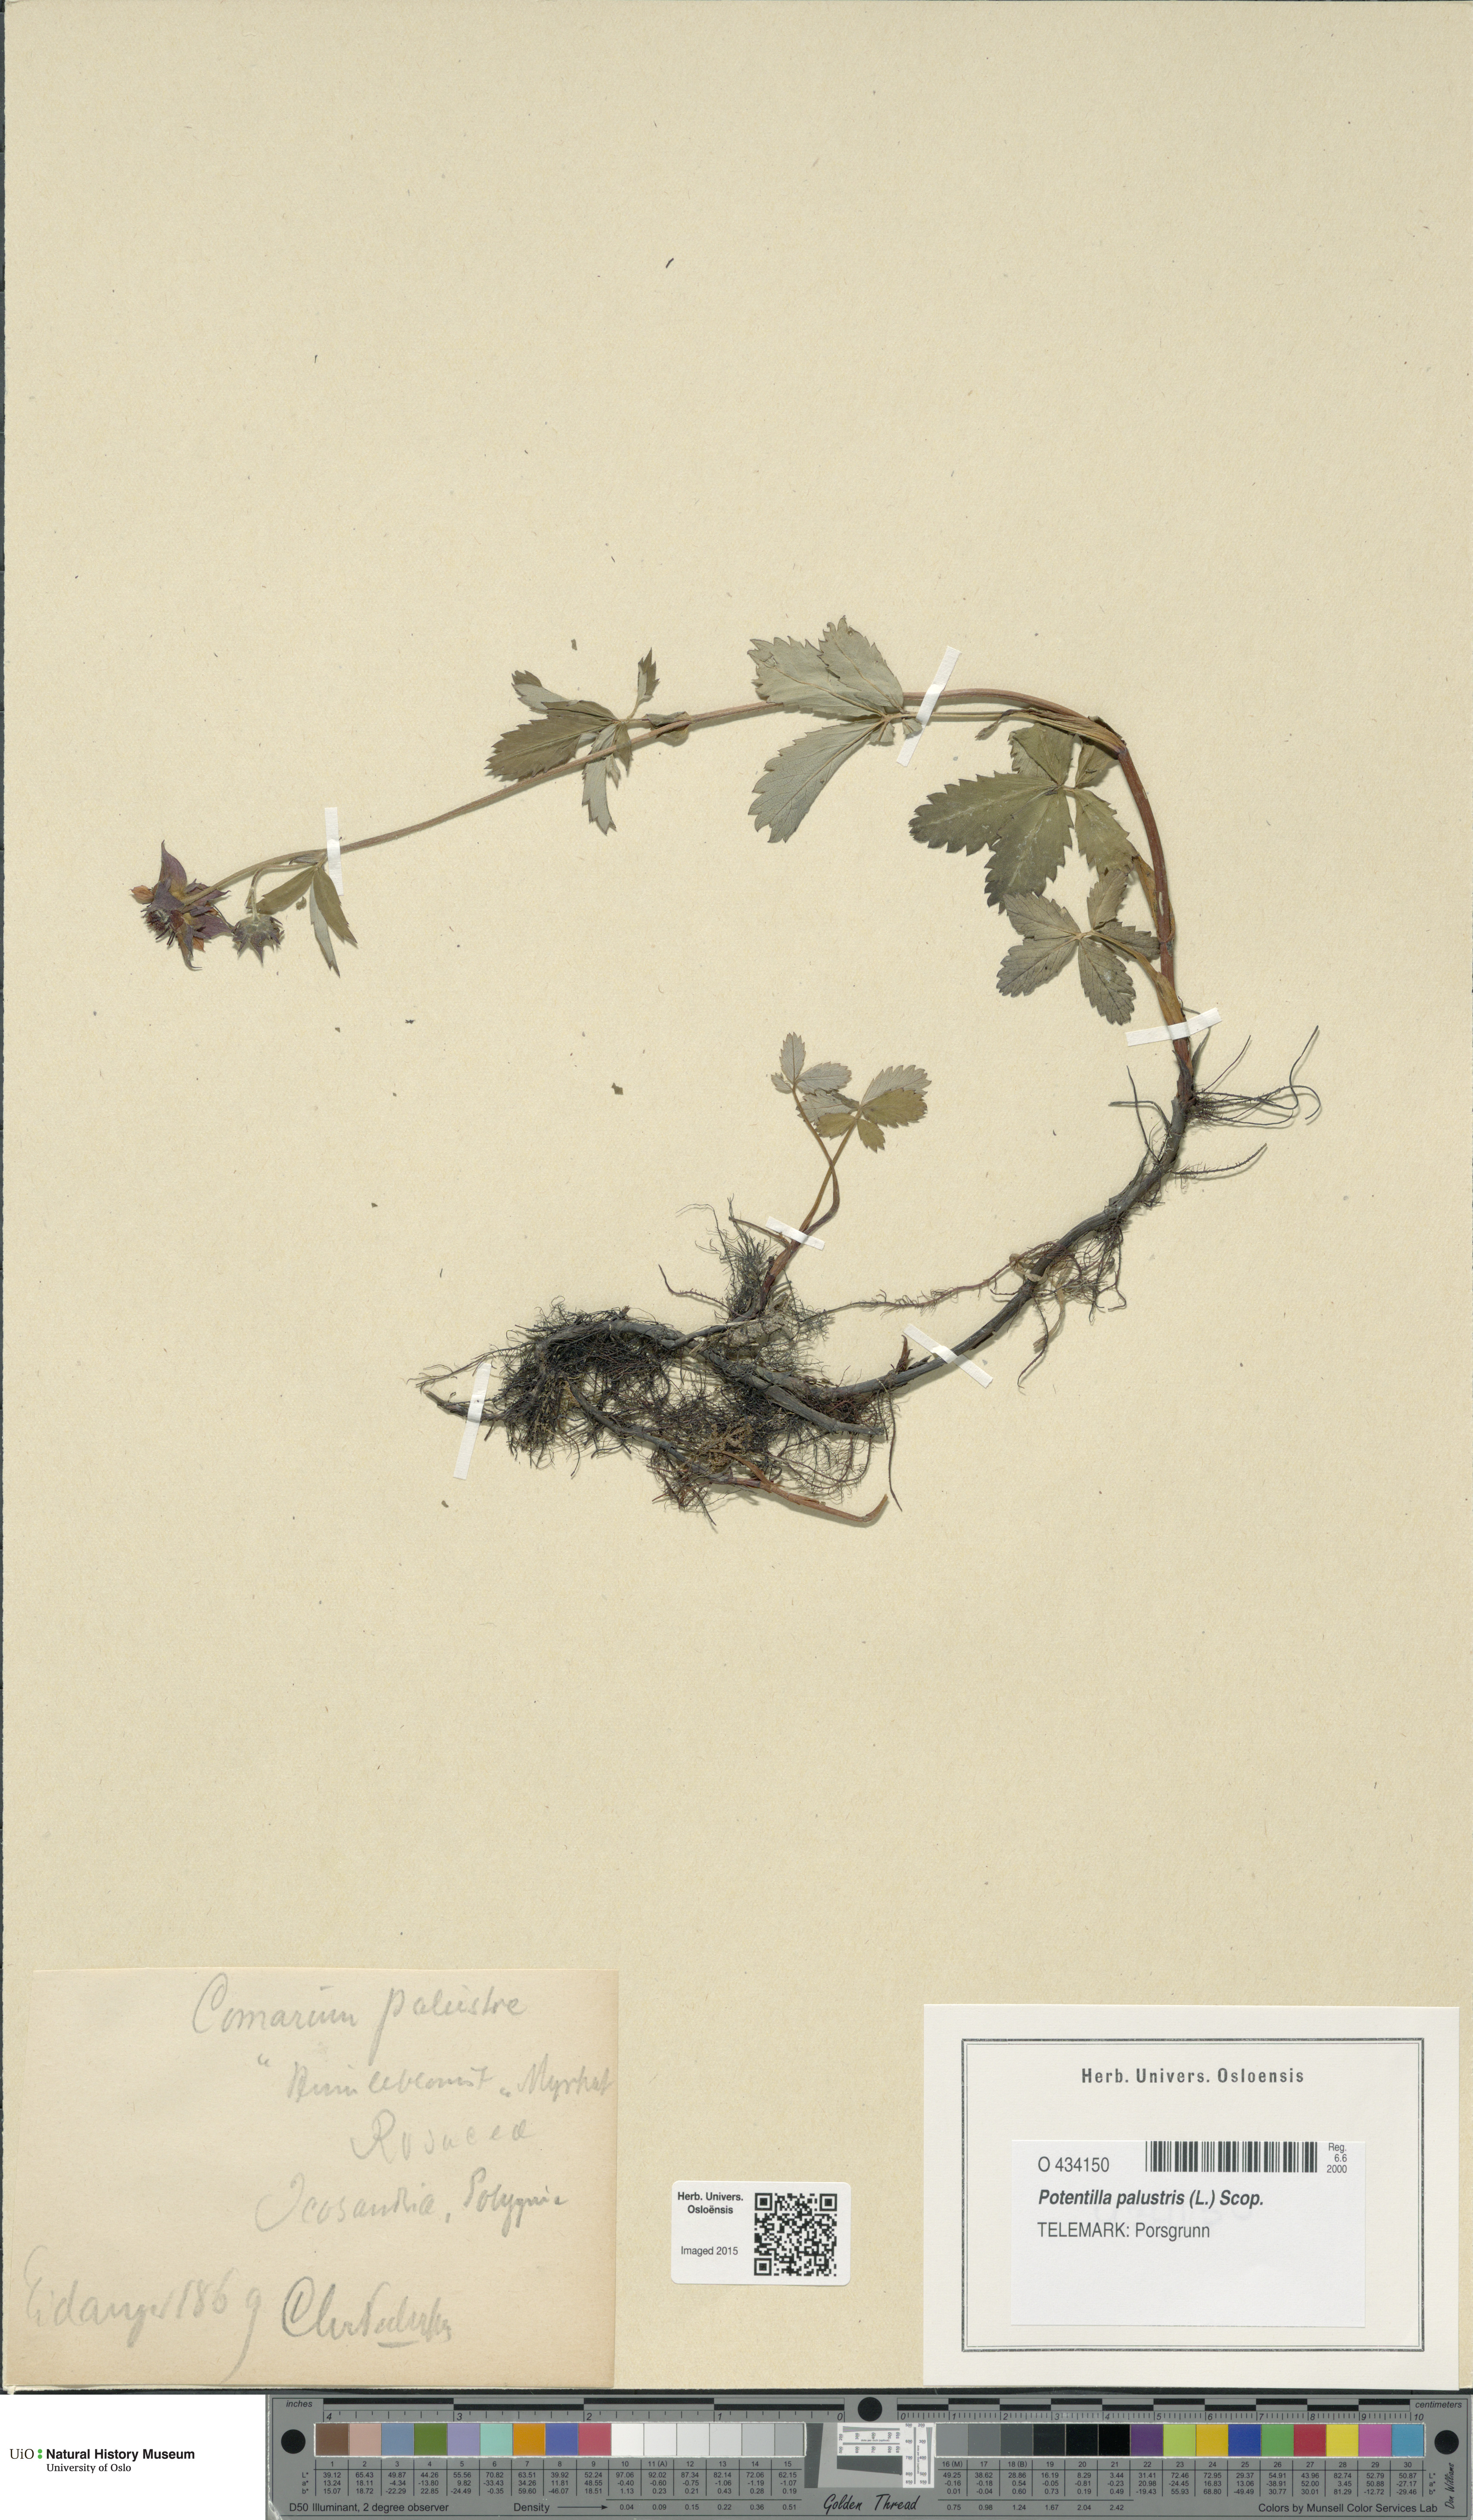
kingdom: Plantae
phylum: Tracheophyta
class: Magnoliopsida
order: Rosales
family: Rosaceae
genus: Comarum
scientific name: Comarum palustre
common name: Marsh cinquefoil
